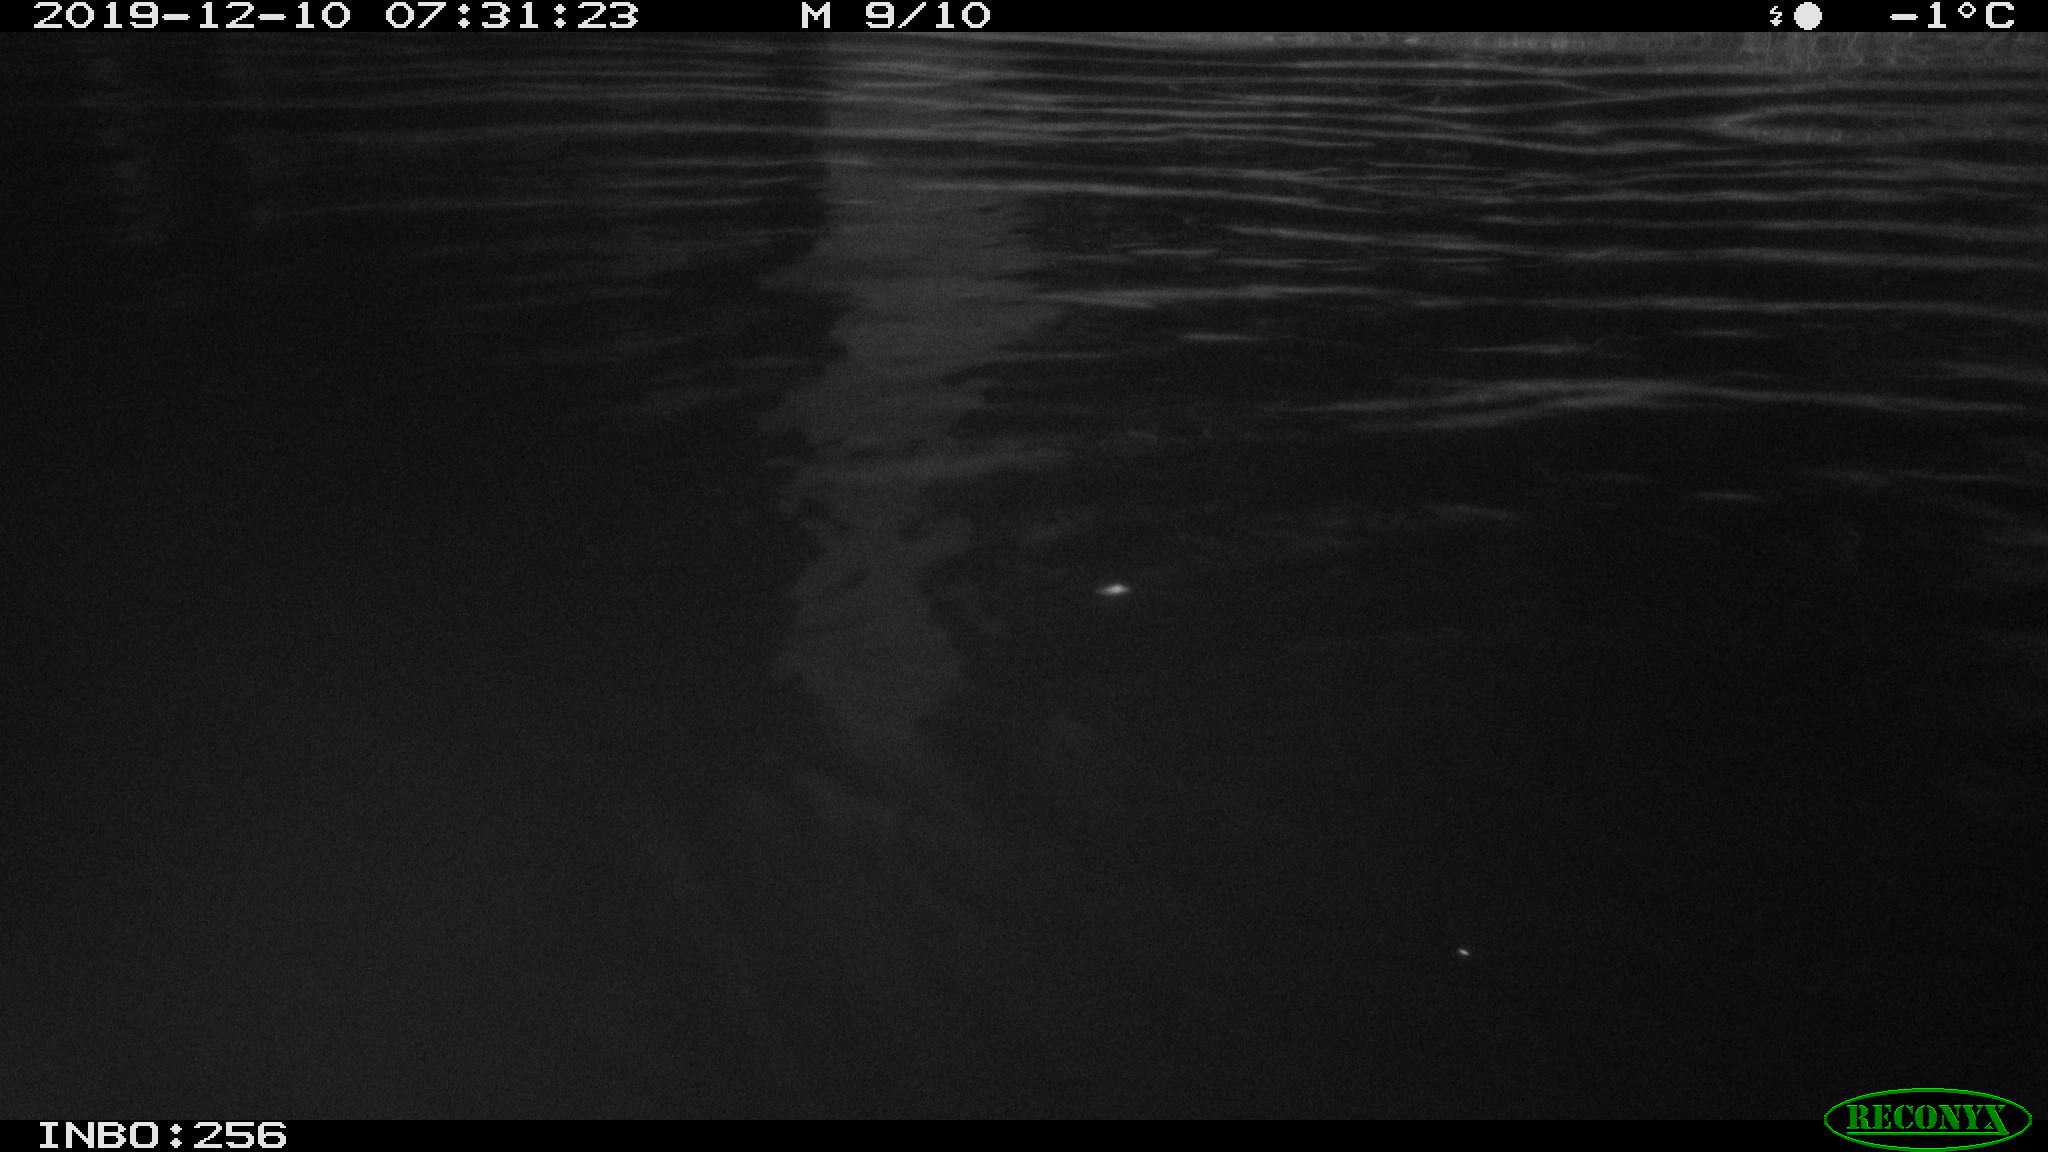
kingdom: Animalia
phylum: Chordata
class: Aves
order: Anseriformes
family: Anatidae
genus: Anas
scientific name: Anas platyrhynchos
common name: Mallard
